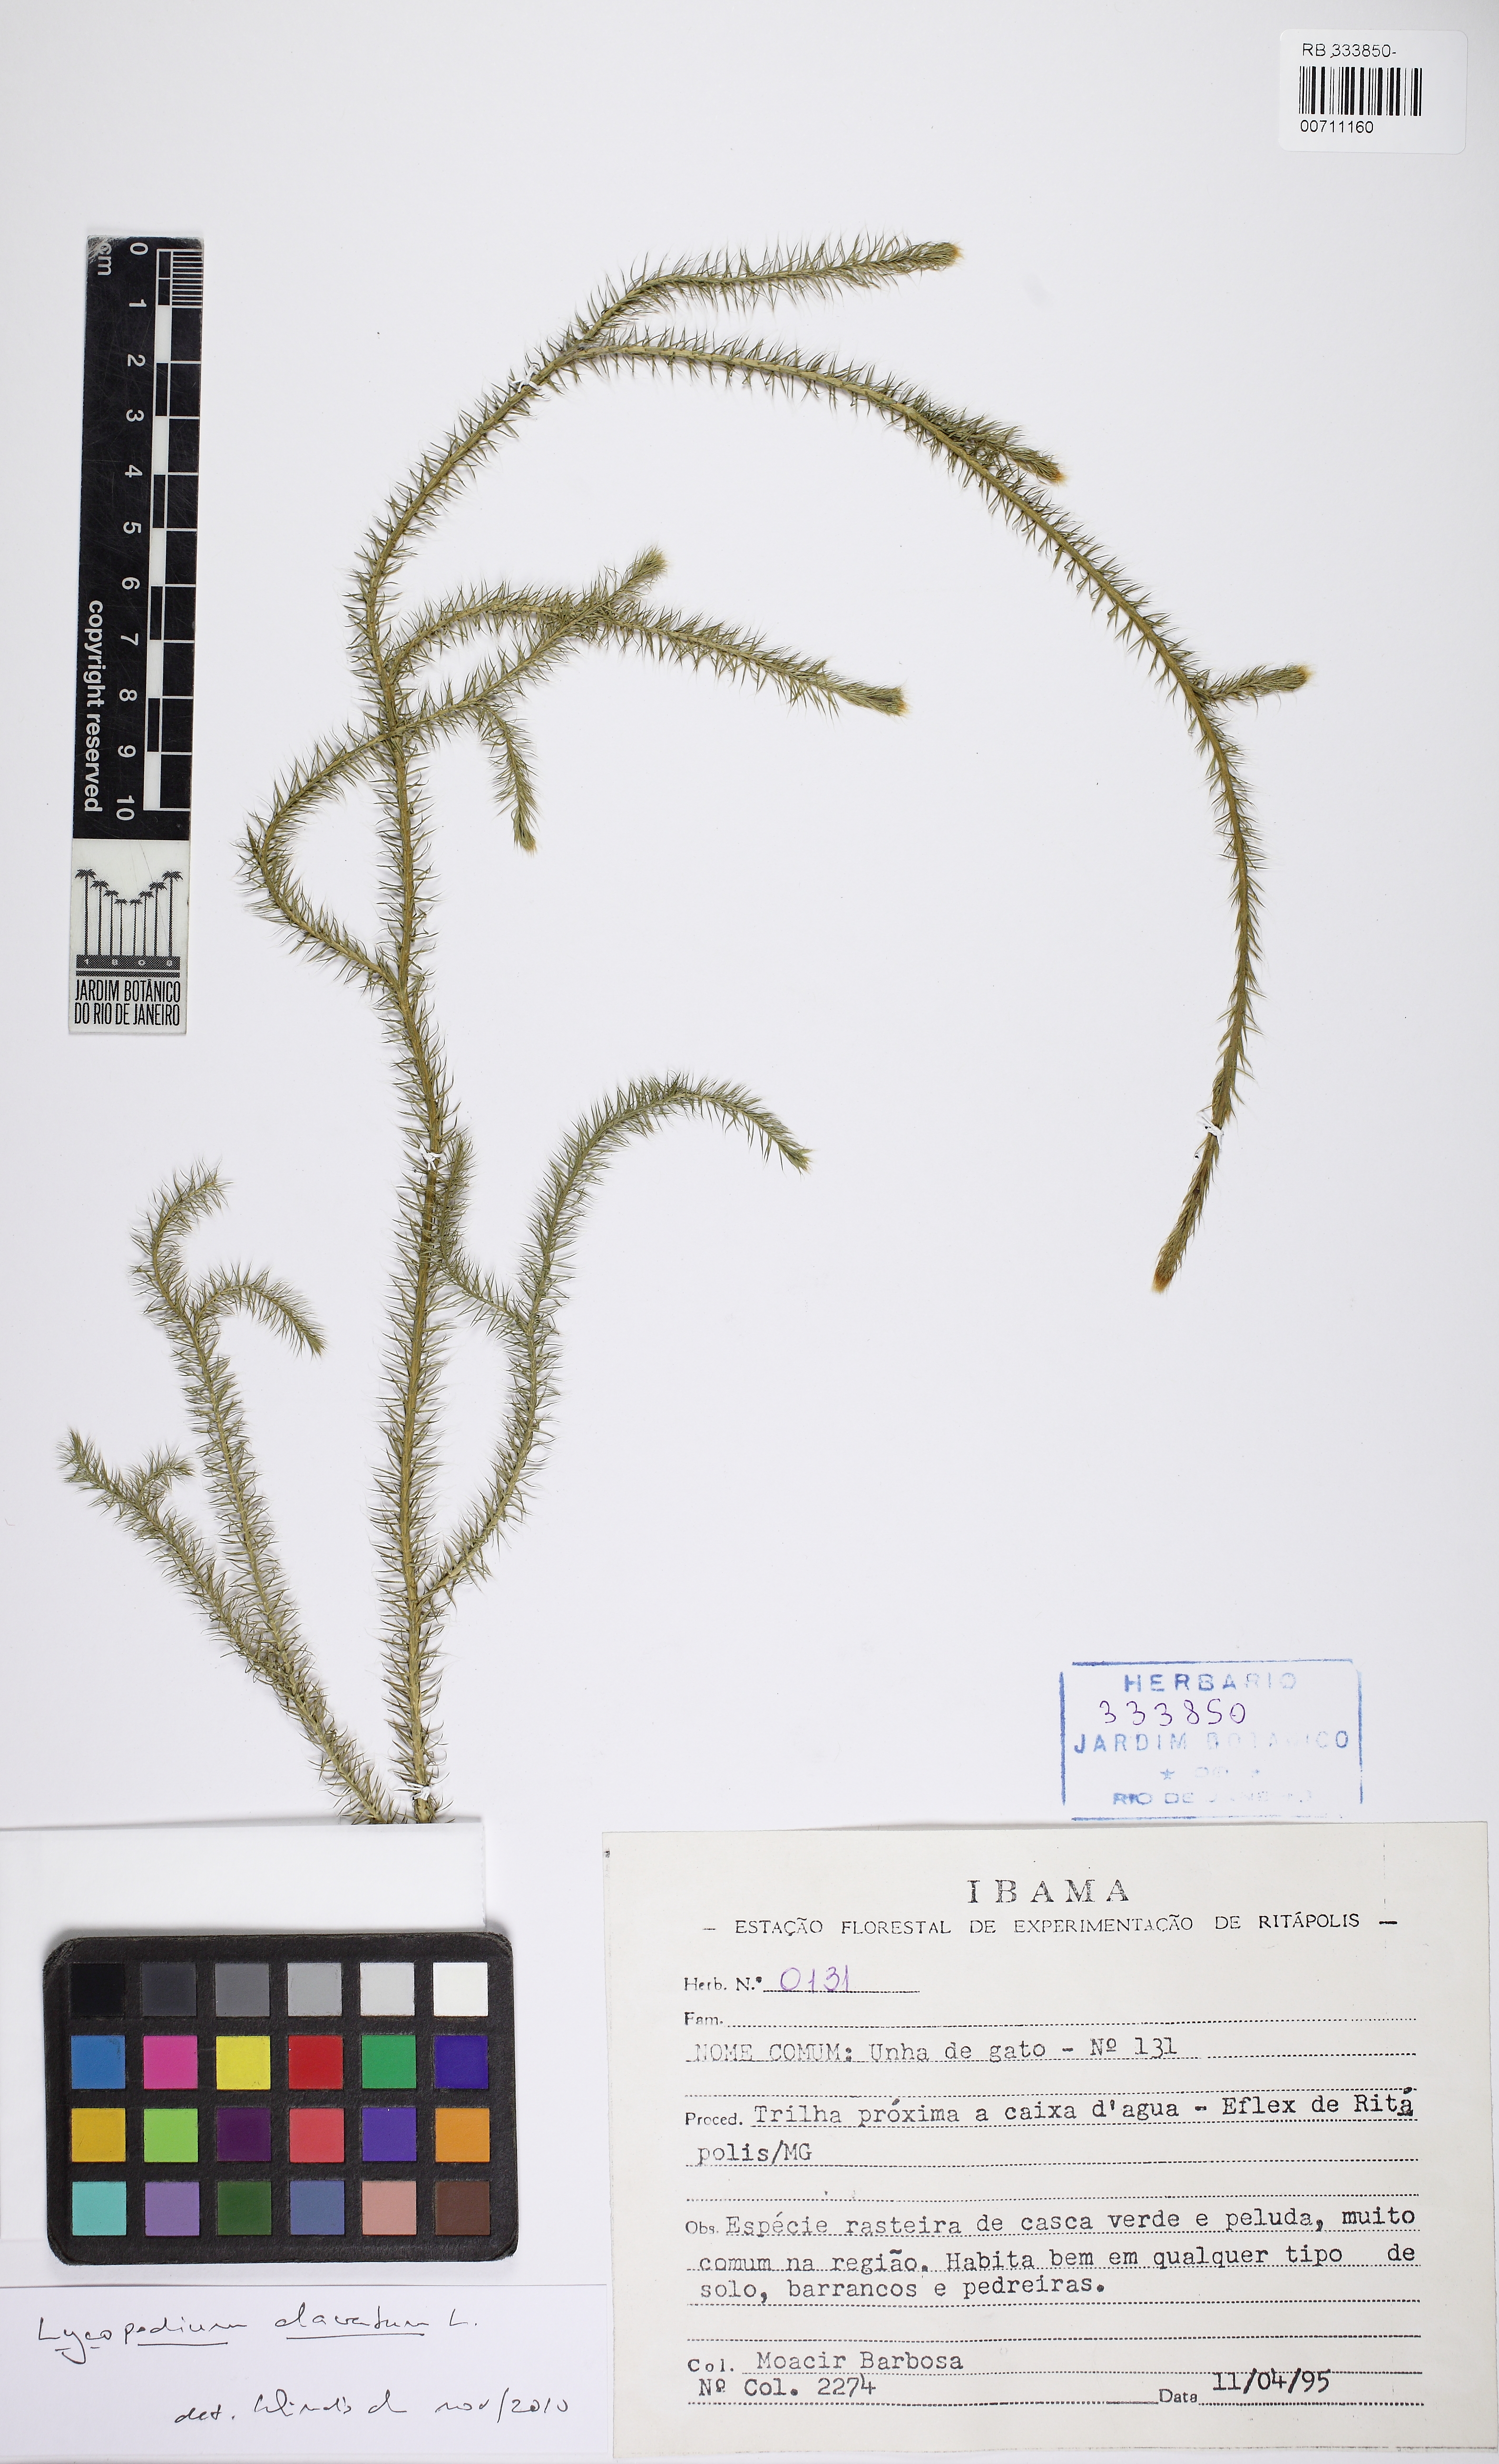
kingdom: Plantae
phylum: Tracheophyta
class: Lycopodiopsida
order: Lycopodiales
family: Lycopodiaceae
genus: Lycopodium
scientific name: Lycopodium clavatum
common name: Stag's-horn clubmoss
